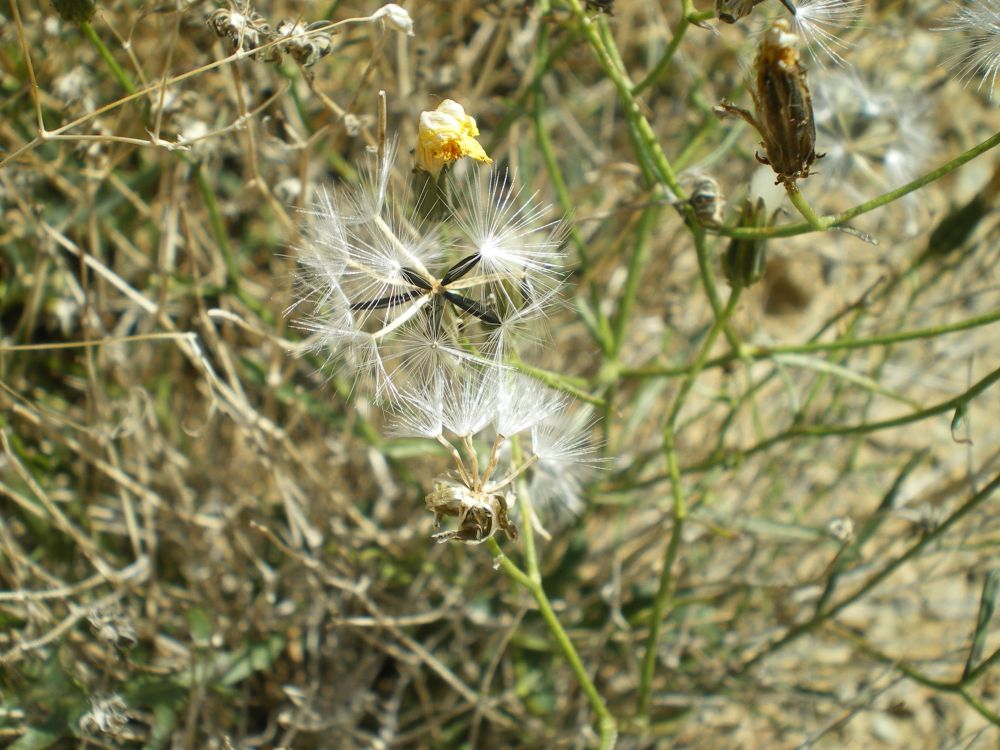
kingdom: Plantae
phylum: Tracheophyta
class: Magnoliopsida
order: Asterales
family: Asteraceae
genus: Crepidiastrum
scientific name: Crepidiastrum tenuifolium
